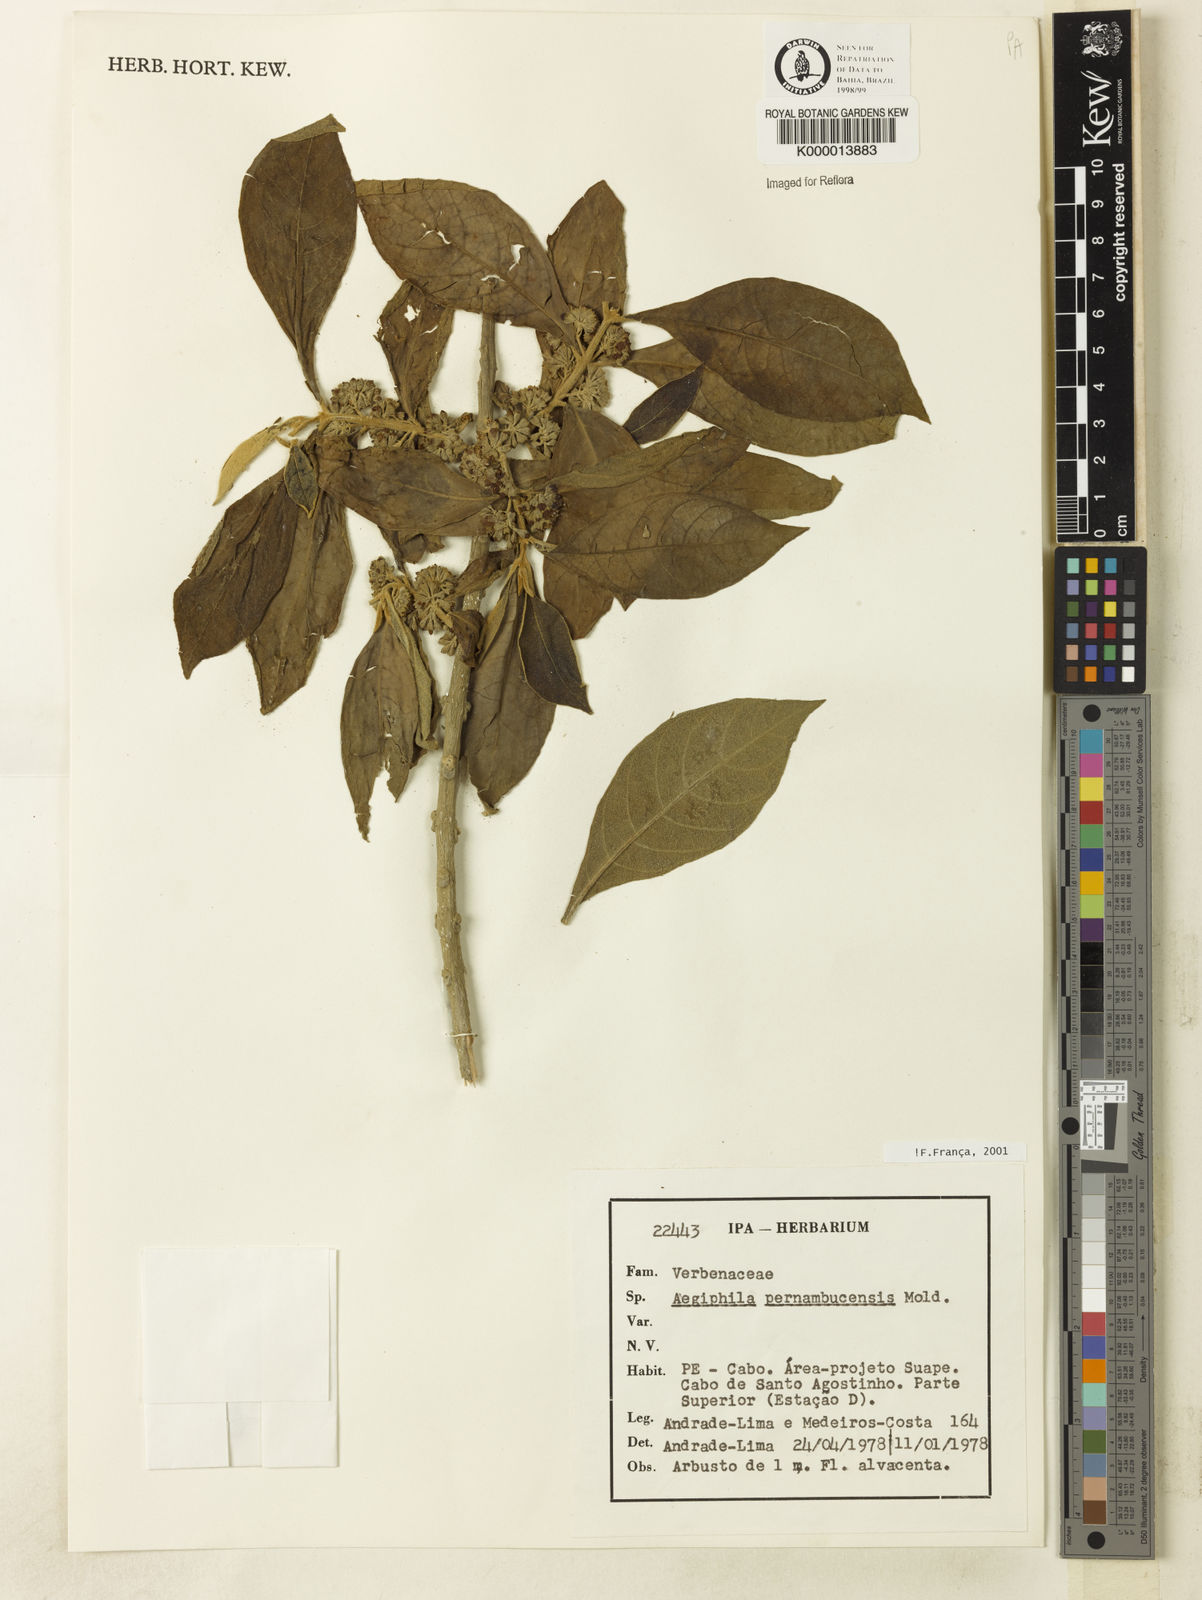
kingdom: Plantae
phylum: Tracheophyta
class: Magnoliopsida
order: Lamiales
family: Lamiaceae
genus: Aegiphila
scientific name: Aegiphila pernambucensis
